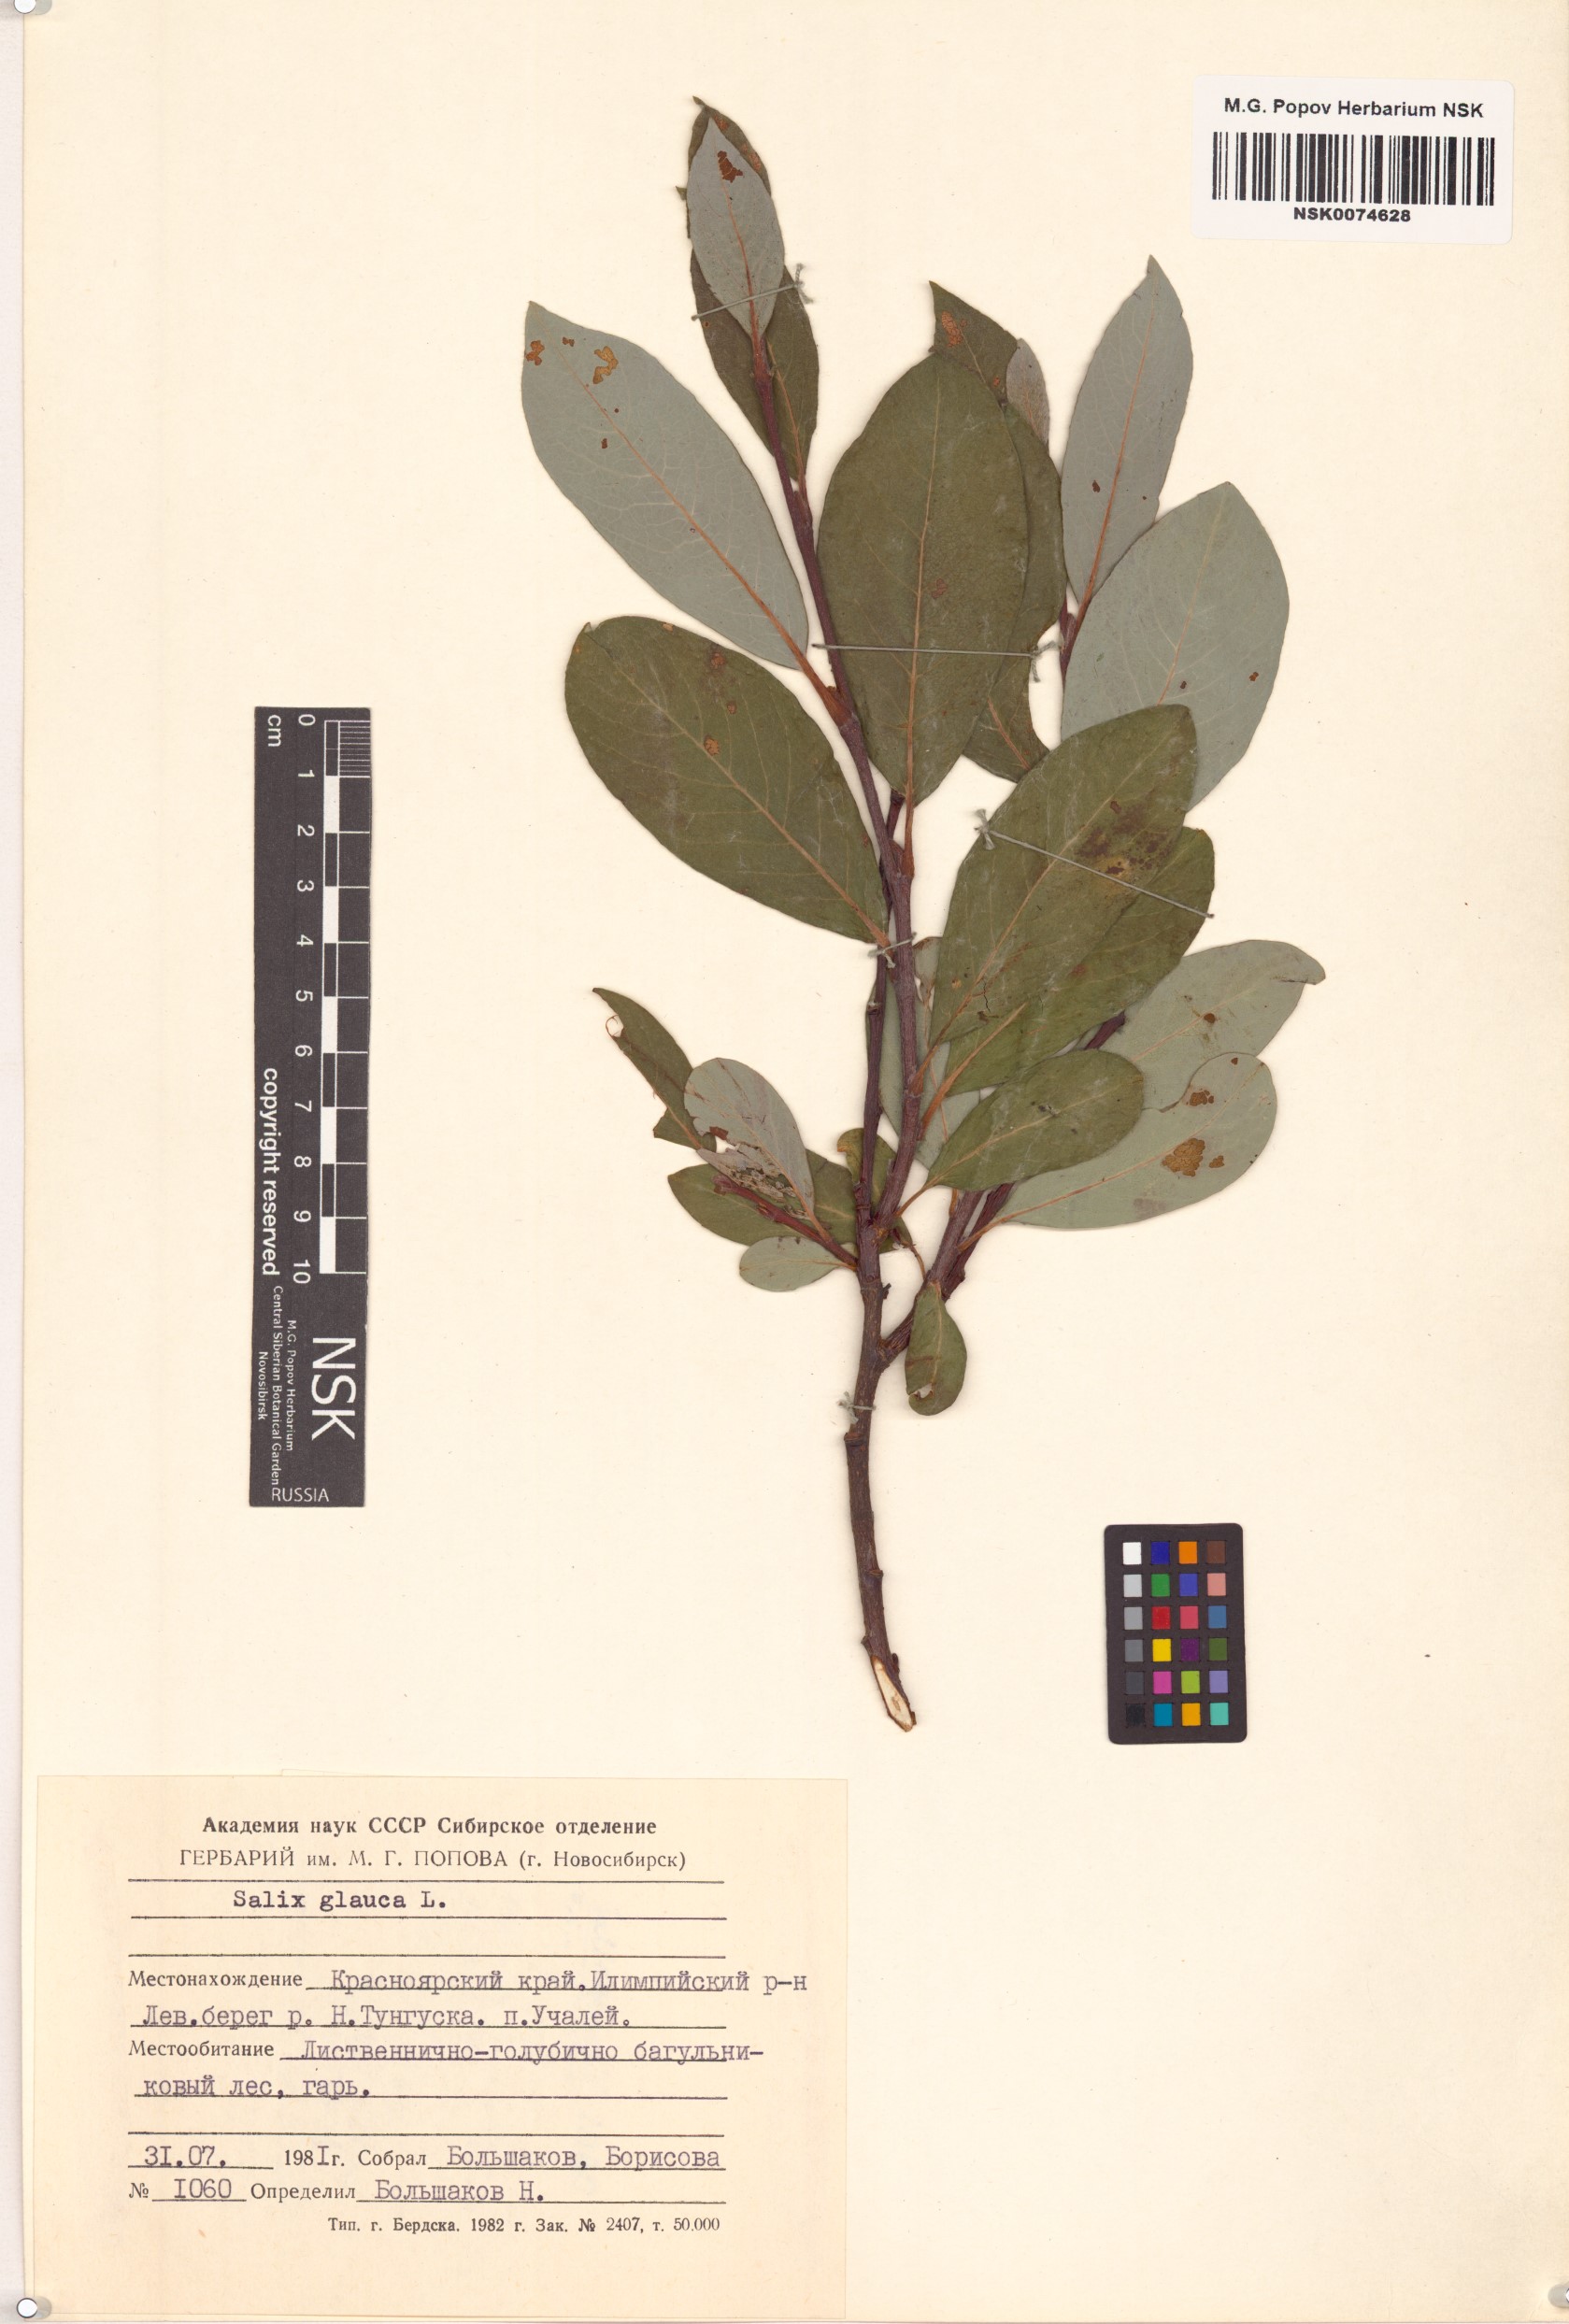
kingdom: Plantae
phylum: Tracheophyta
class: Magnoliopsida
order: Malpighiales
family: Salicaceae
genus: Salix
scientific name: Salix glauca
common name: Glaucous willow
